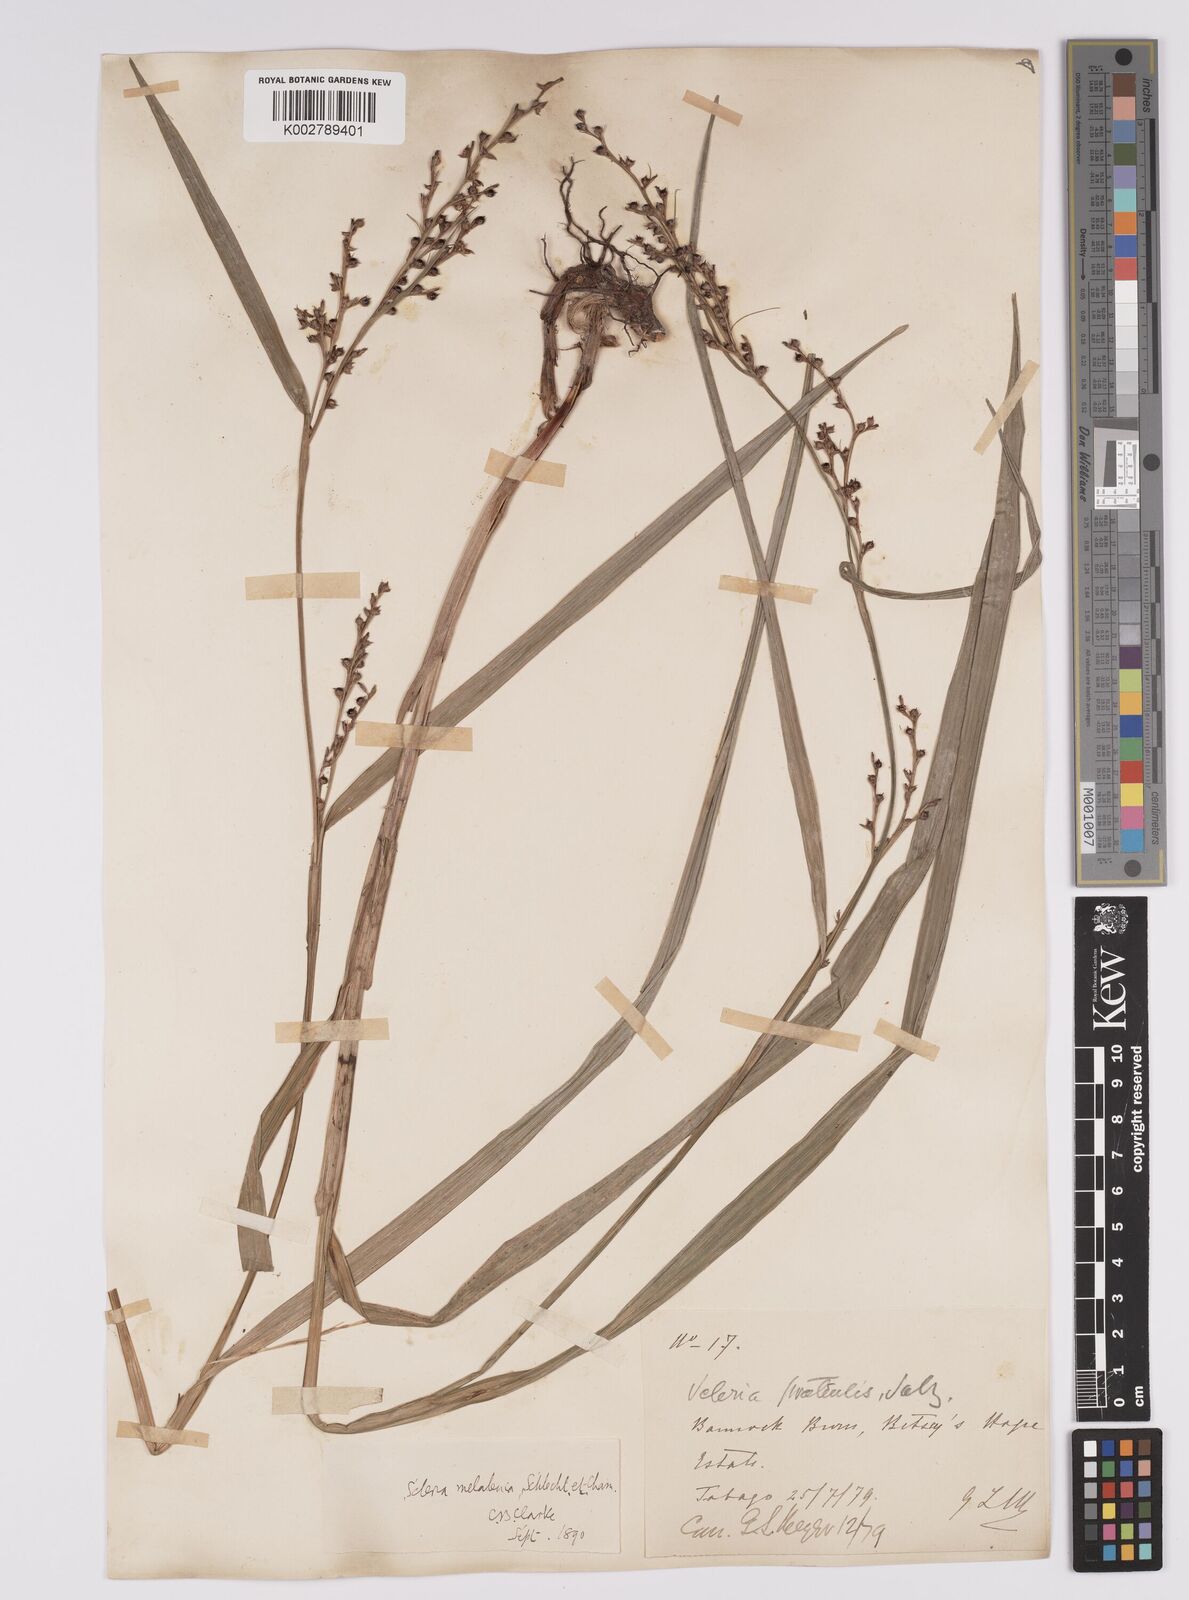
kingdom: Plantae
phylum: Tracheophyta
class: Liliopsida
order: Poales
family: Cyperaceae
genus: Scleria
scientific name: Scleria gaertneri
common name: Cortadera blanca
